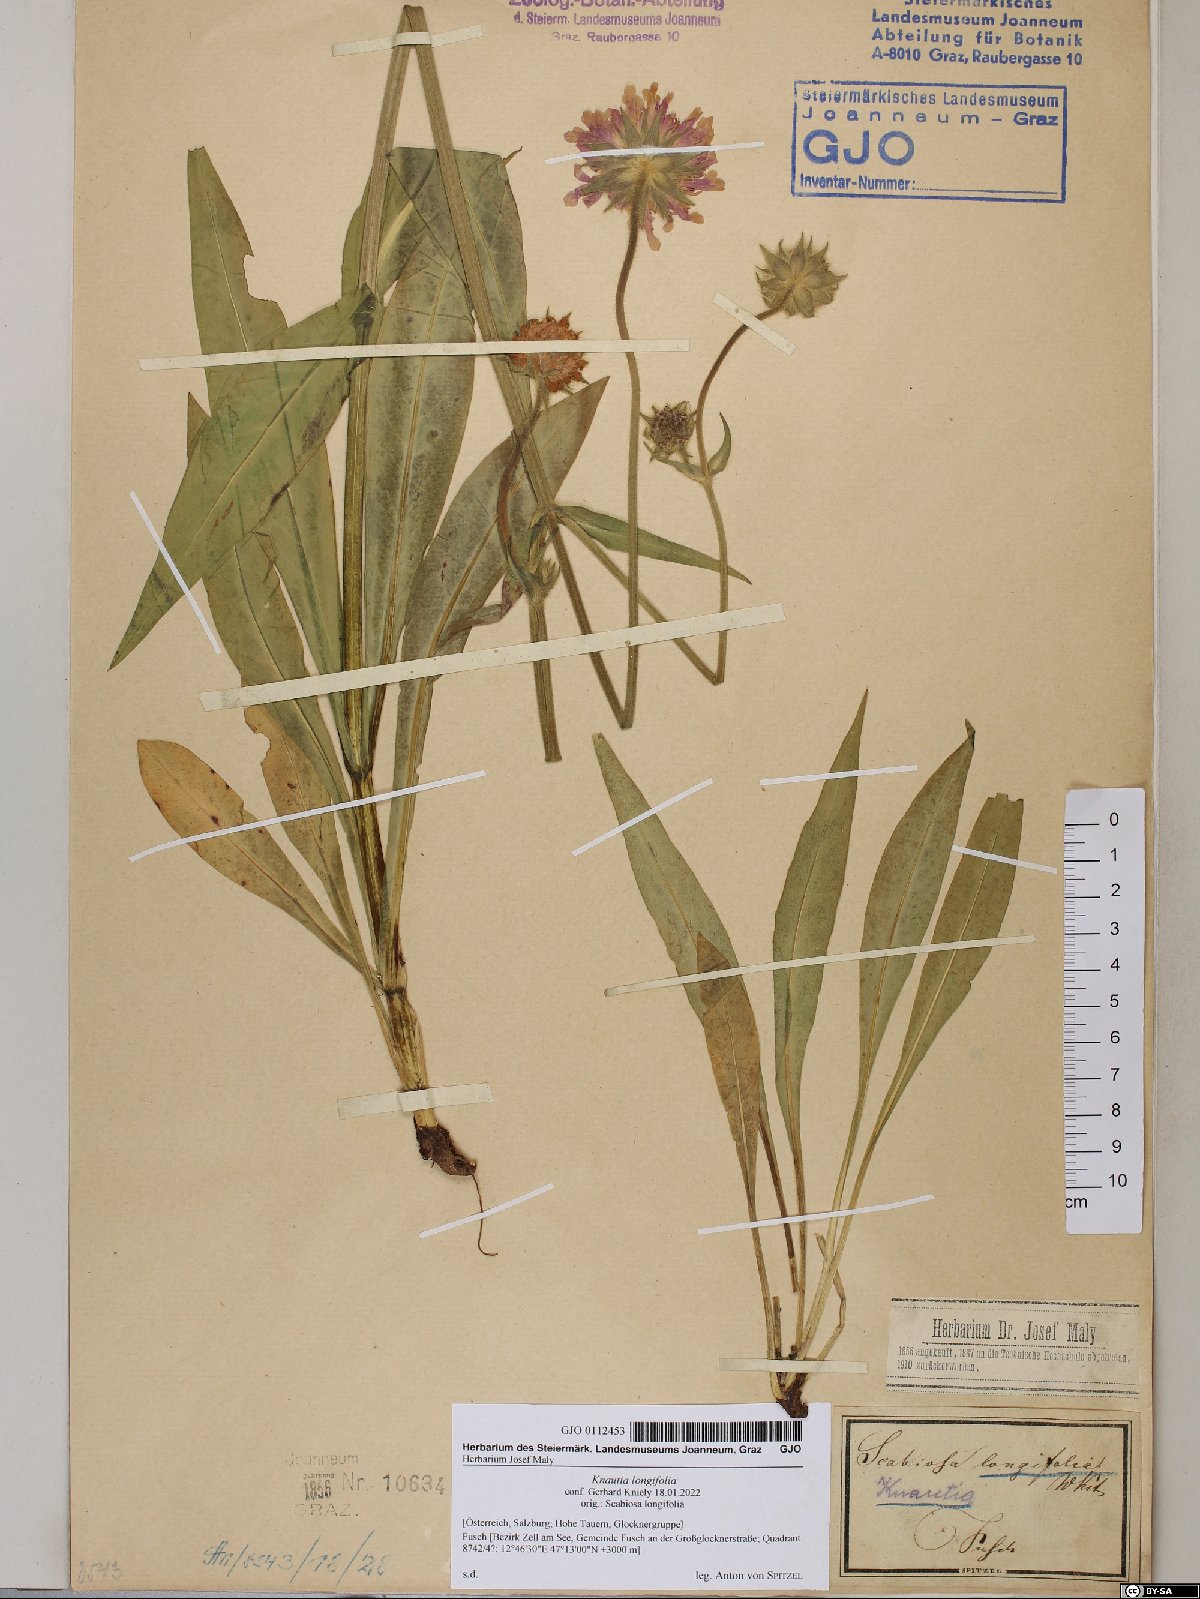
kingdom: Plantae
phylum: Tracheophyta
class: Magnoliopsida
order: Dipsacales
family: Caprifoliaceae
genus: Knautia
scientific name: Knautia longifolia
